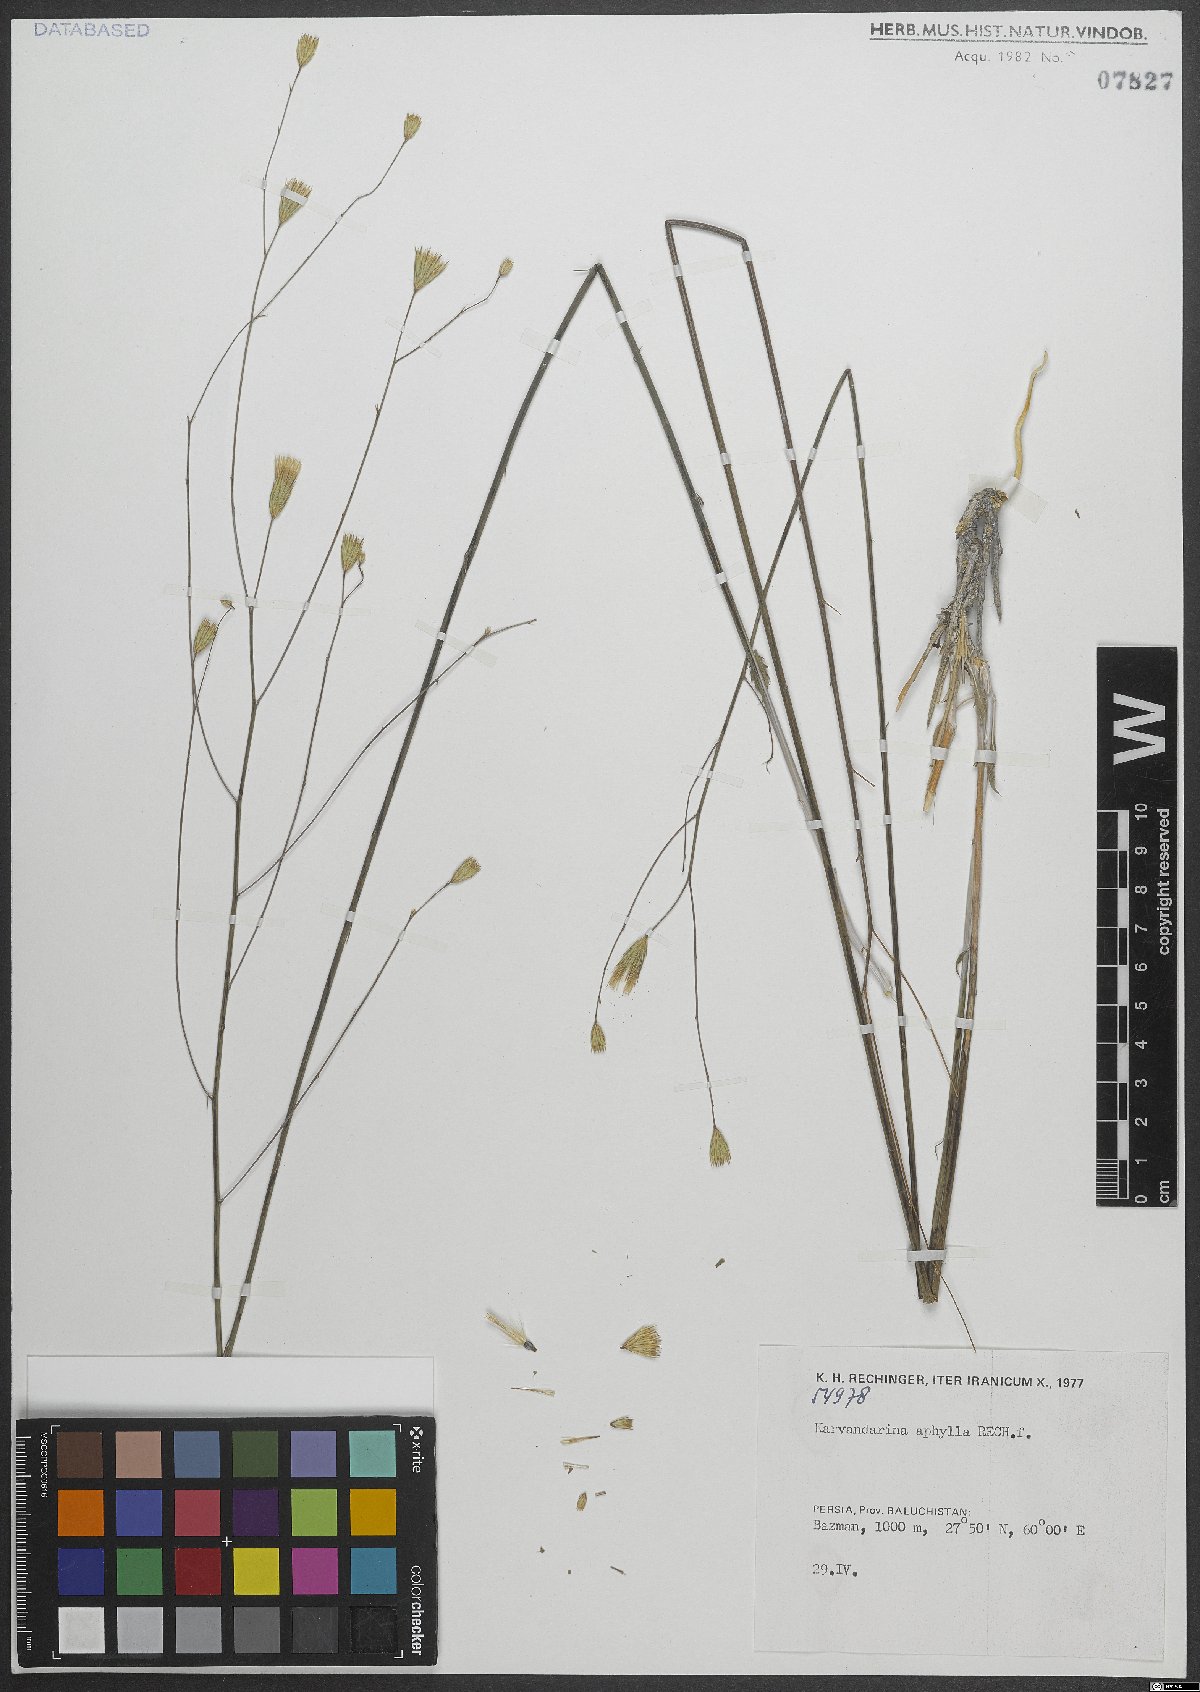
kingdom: Plantae
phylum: Tracheophyta
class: Magnoliopsida
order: Asterales
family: Asteraceae
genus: Karvandarina
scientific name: Karvandarina aphylla
